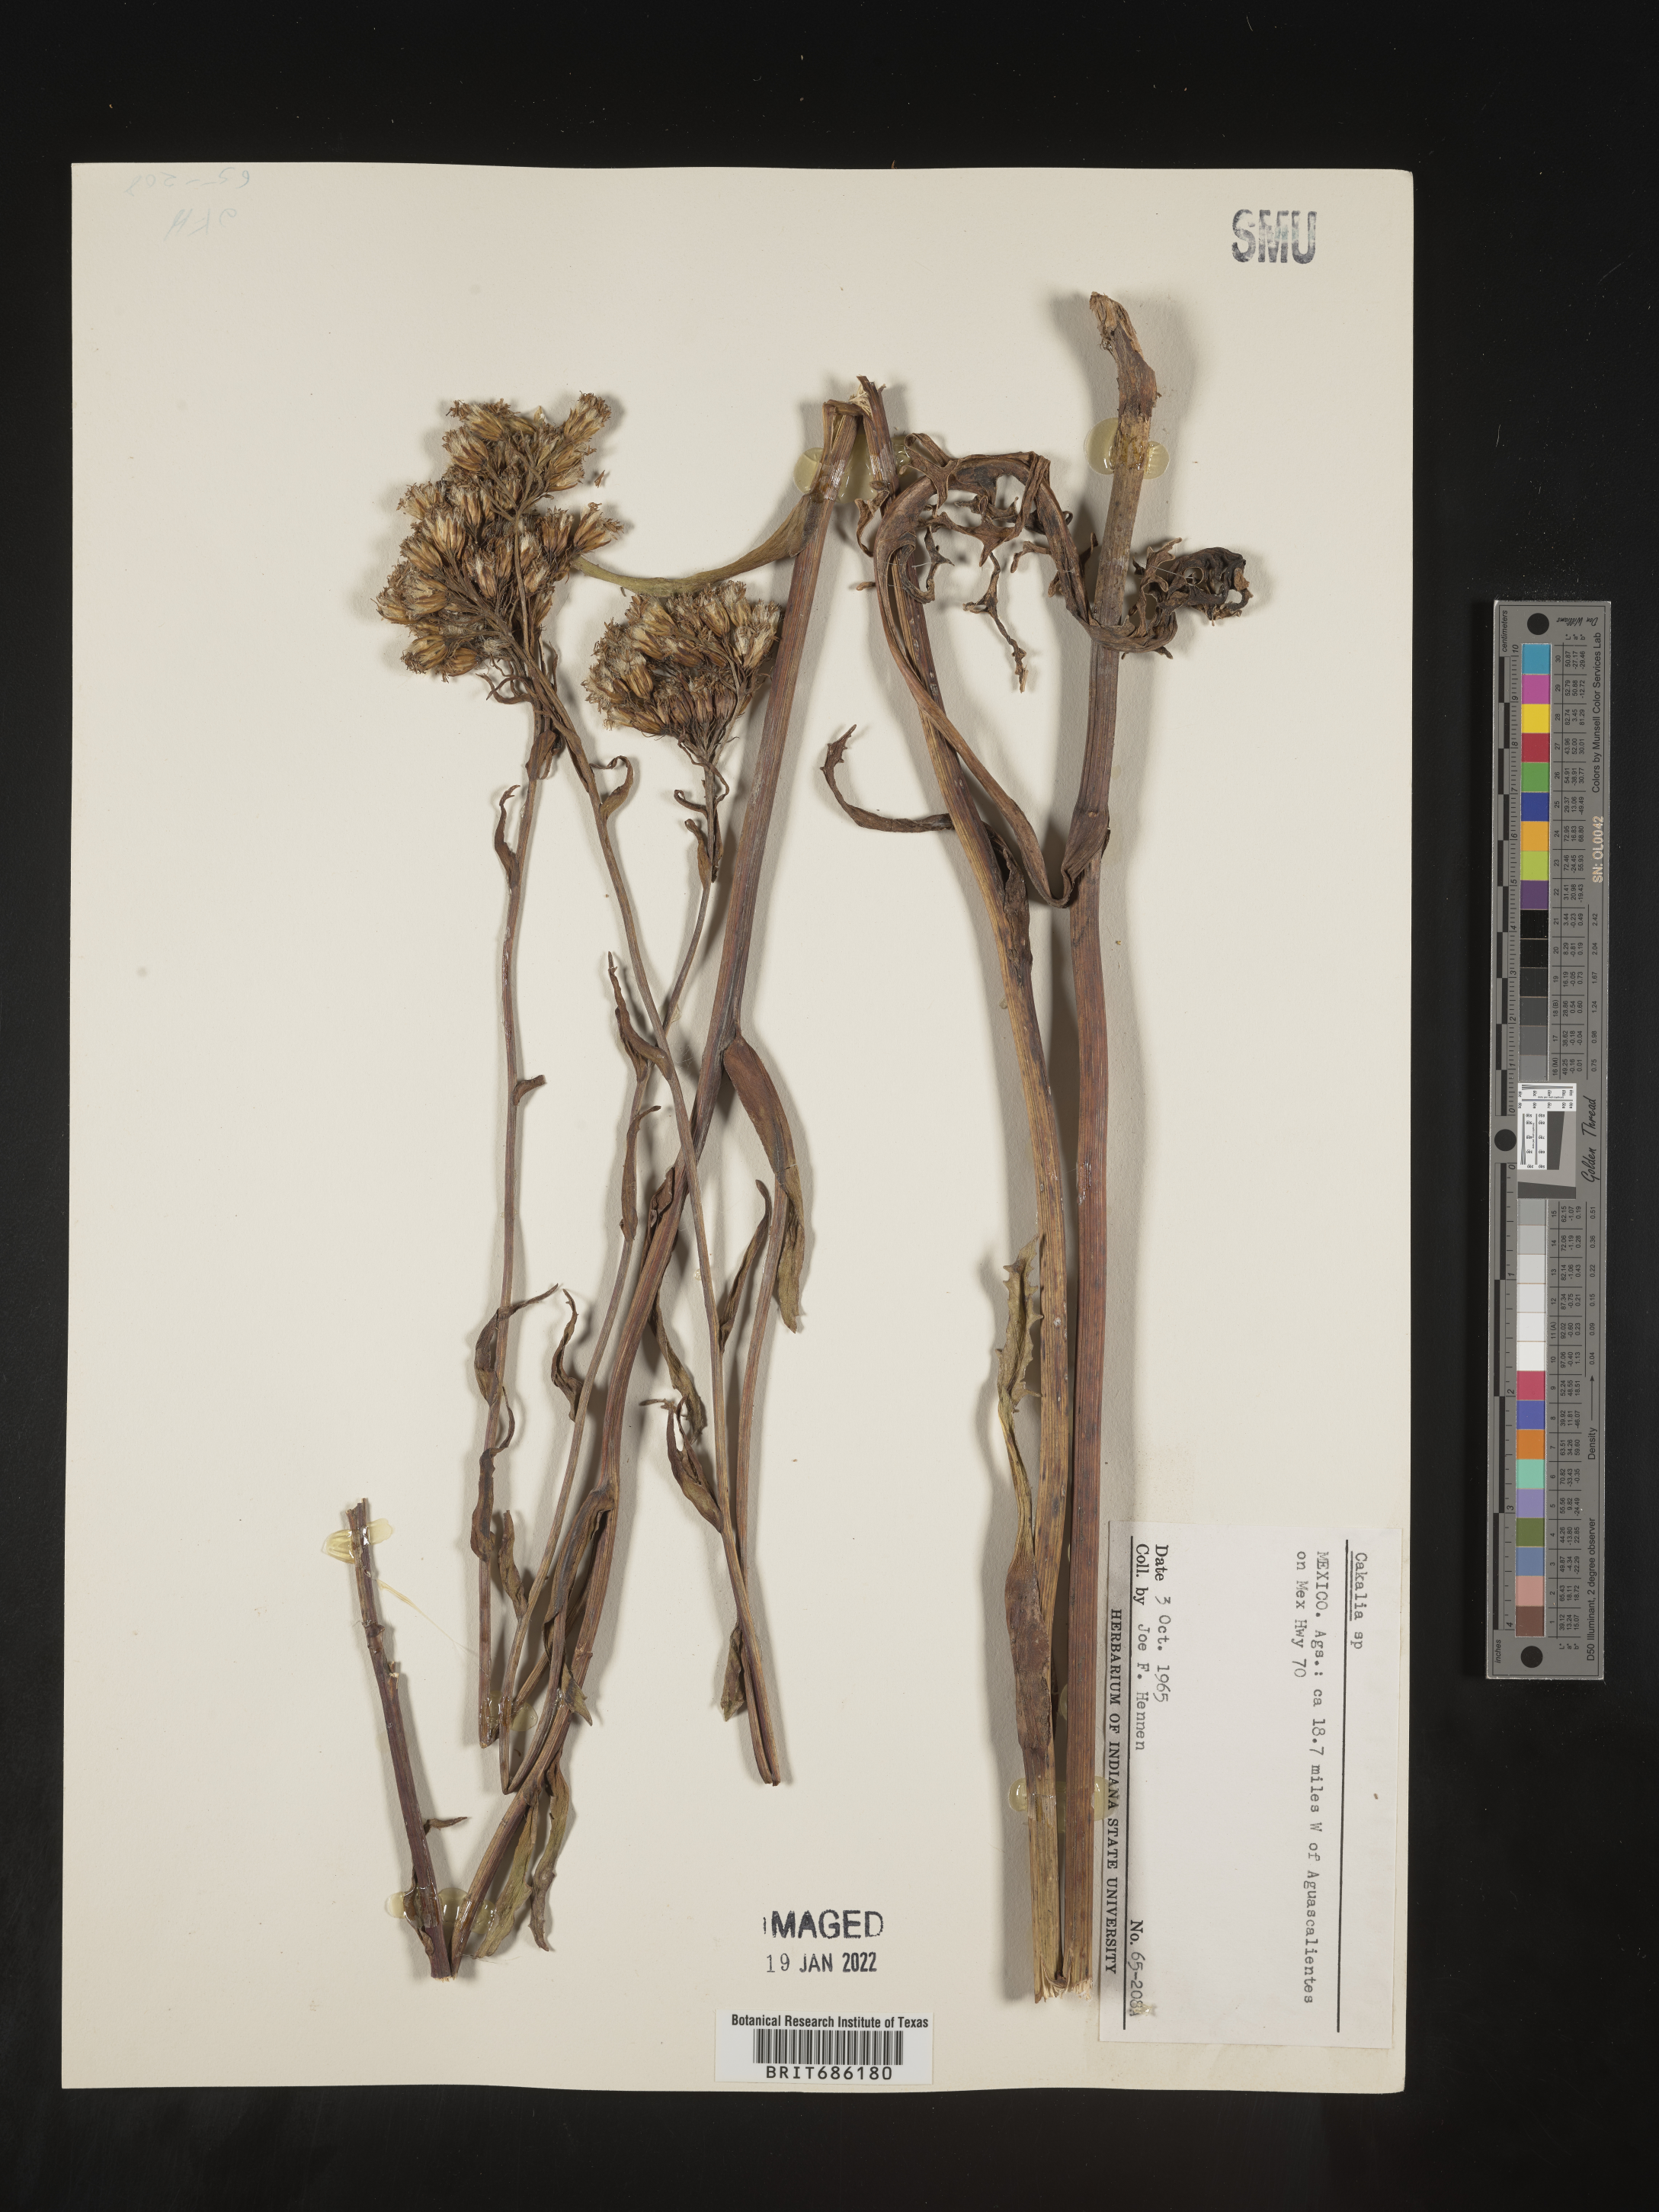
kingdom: Plantae
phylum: Tracheophyta
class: Magnoliopsida
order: Asterales
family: Asteraceae
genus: Cacalia
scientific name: Cacalia
